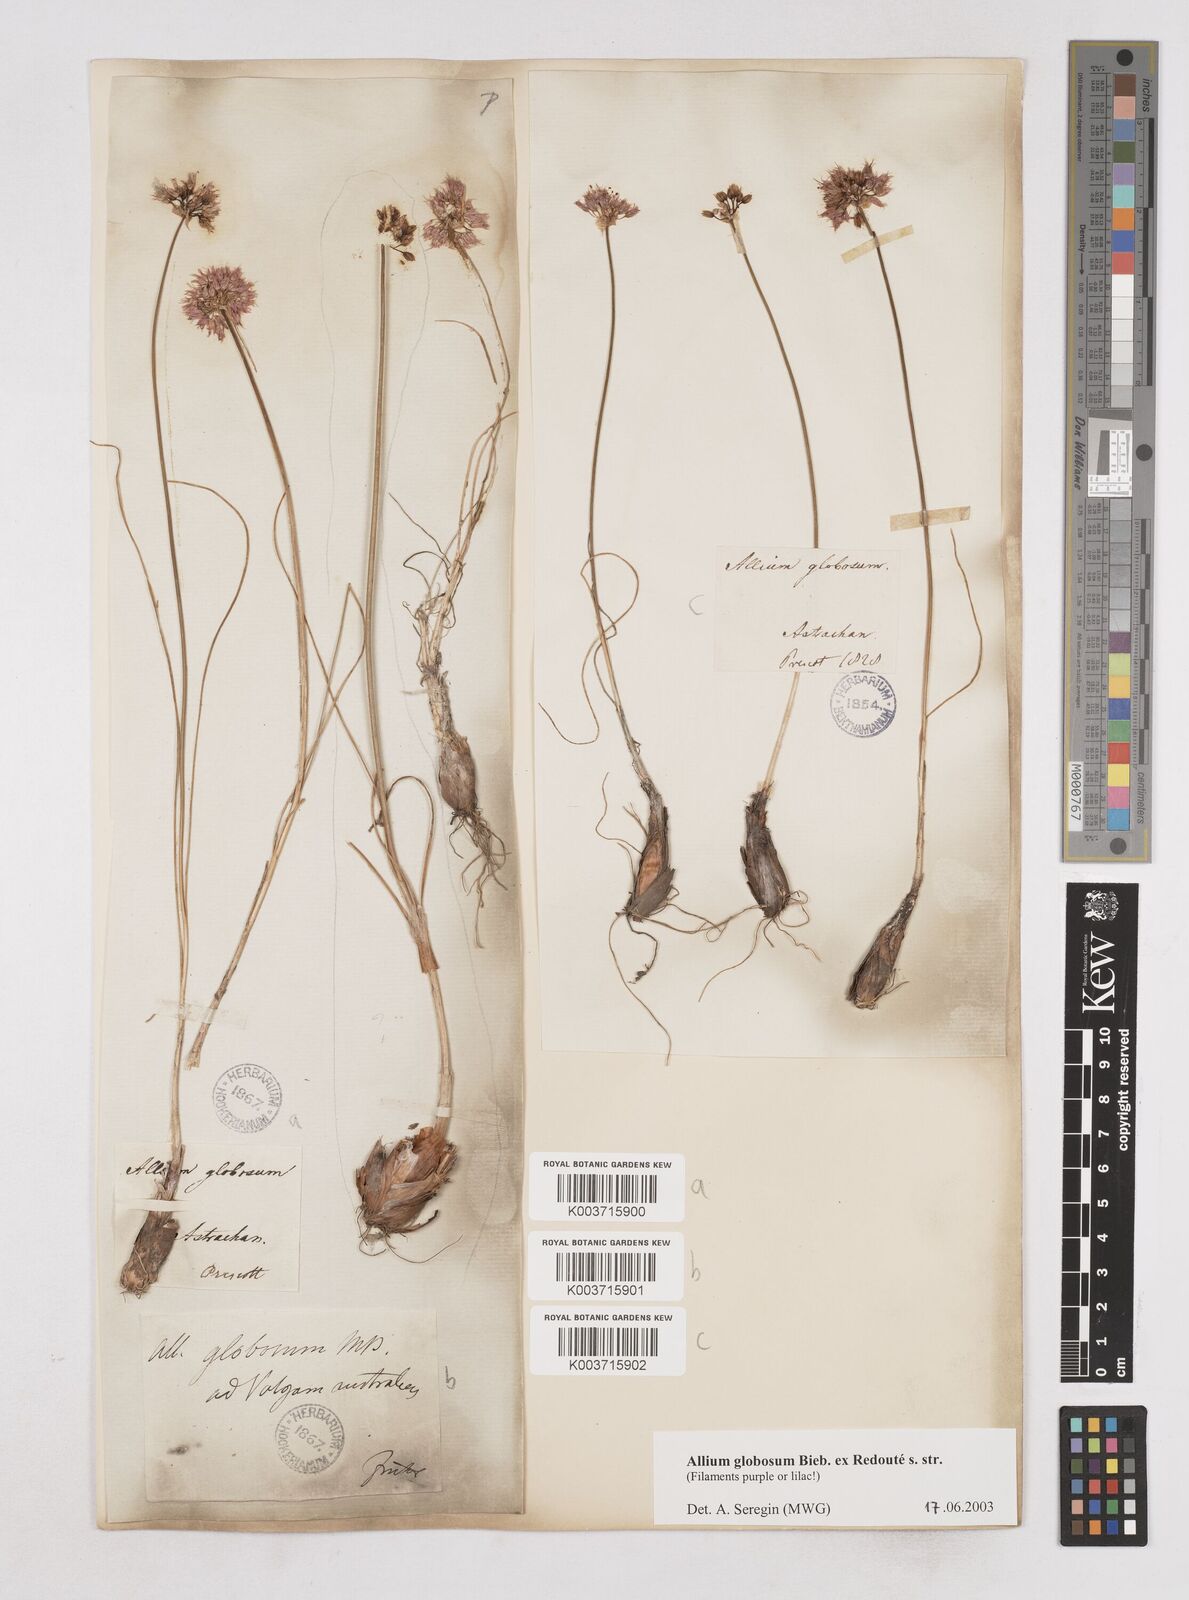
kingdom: Plantae
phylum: Tracheophyta
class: Liliopsida
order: Asparagales
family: Amaryllidaceae
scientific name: Amaryllidaceae
